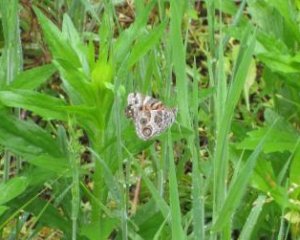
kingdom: Animalia
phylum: Arthropoda
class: Insecta
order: Lepidoptera
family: Nymphalidae
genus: Vanessa
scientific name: Vanessa virginiensis
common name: American Lady
